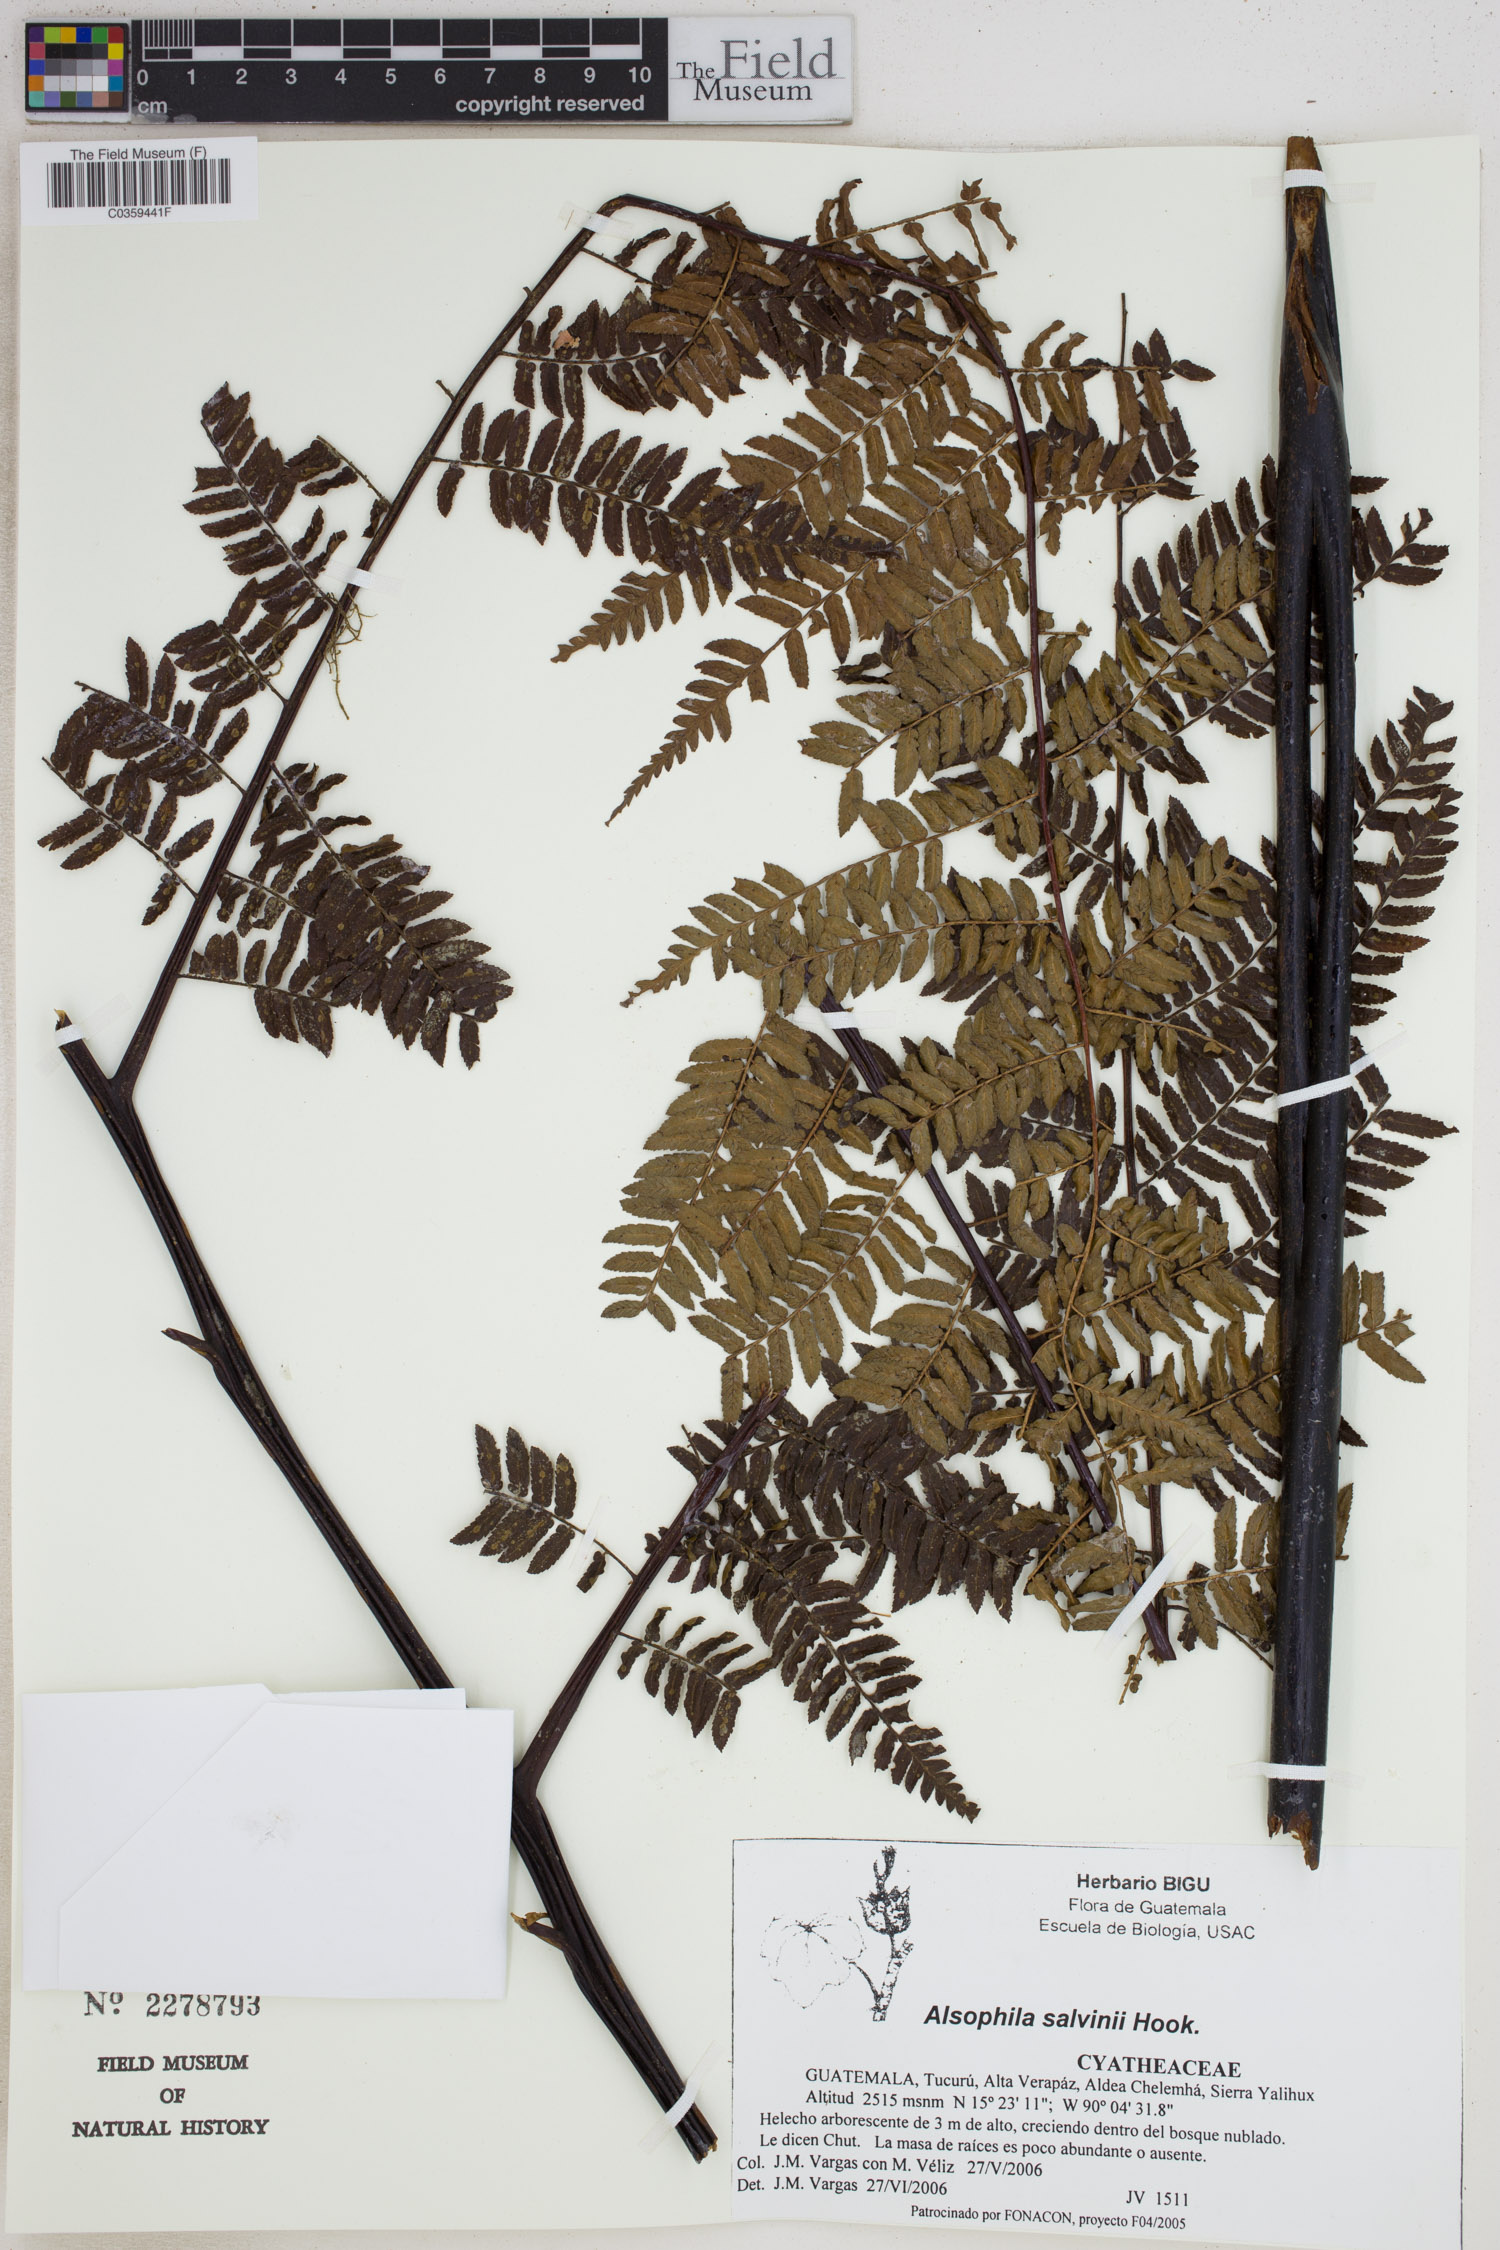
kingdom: Plantae
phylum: Tracheophyta
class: Polypodiopsida
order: Cyatheales
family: Cyatheaceae
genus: Gymnosphaera
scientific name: Gymnosphaera salvinii
